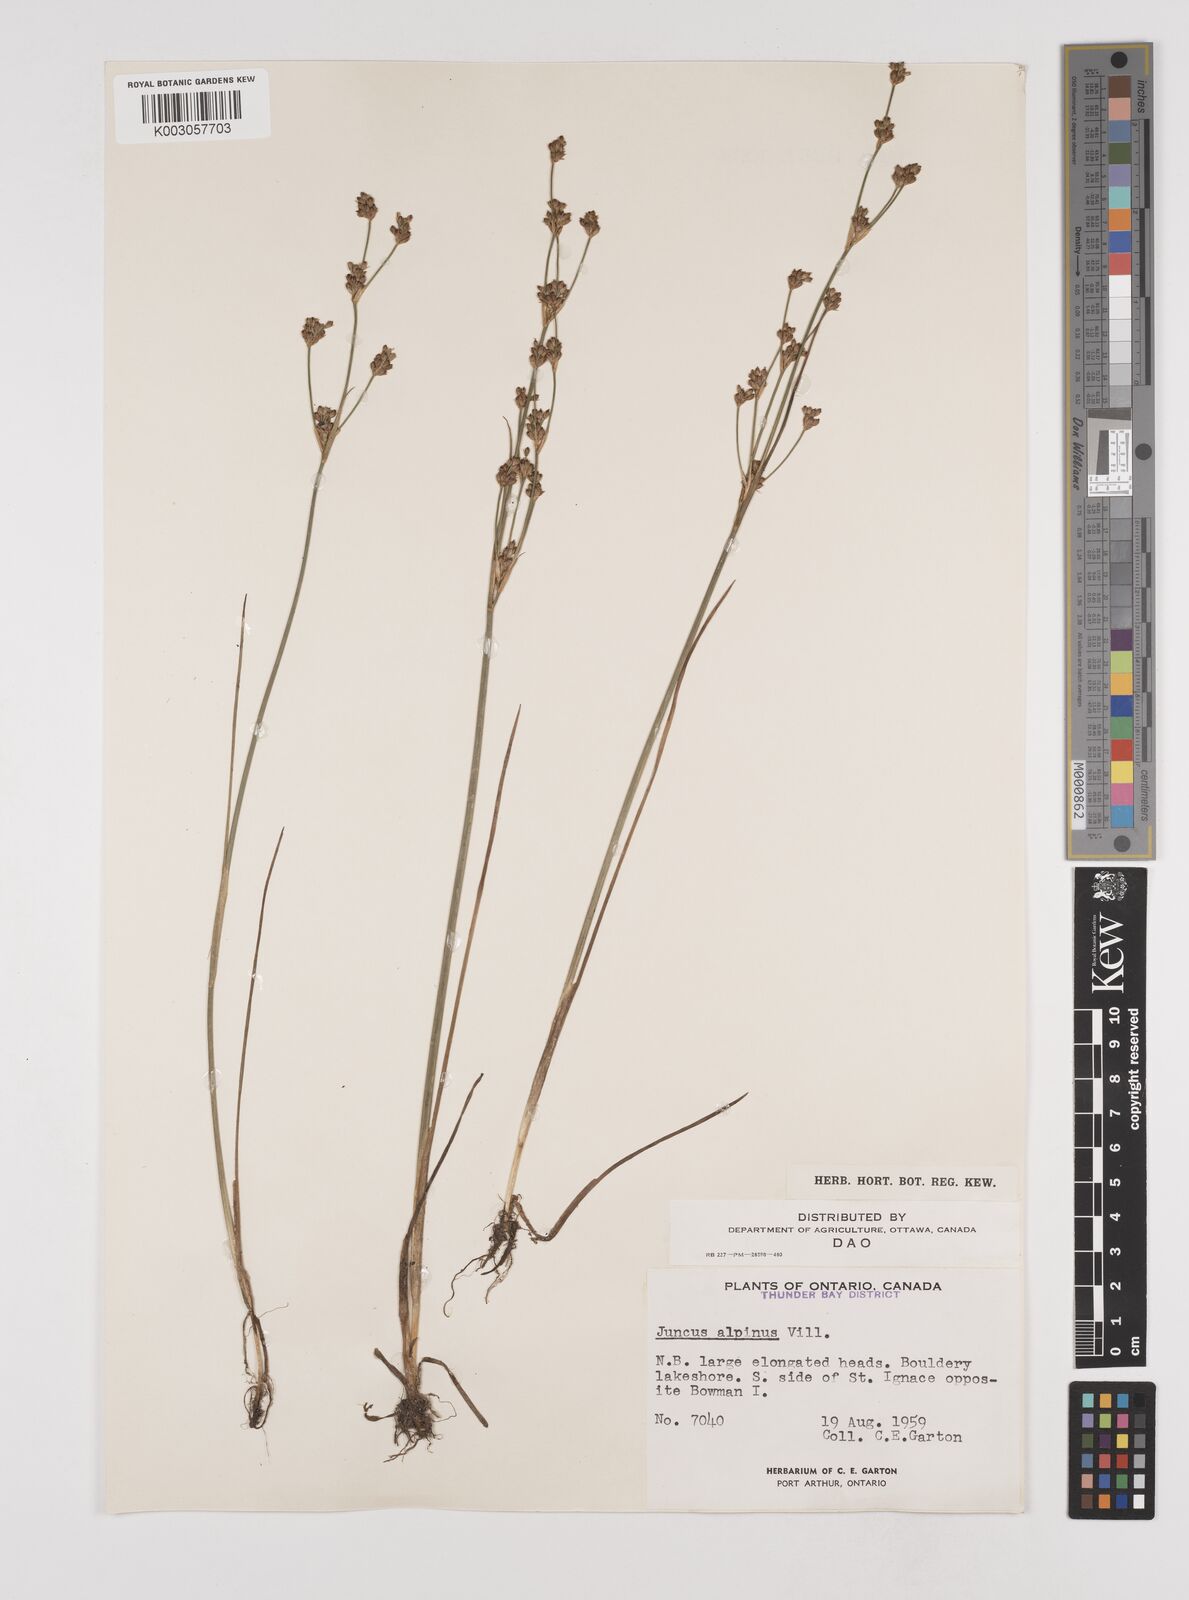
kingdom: Plantae
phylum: Tracheophyta
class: Liliopsida
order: Poales
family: Juncaceae
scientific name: Juncaceae
